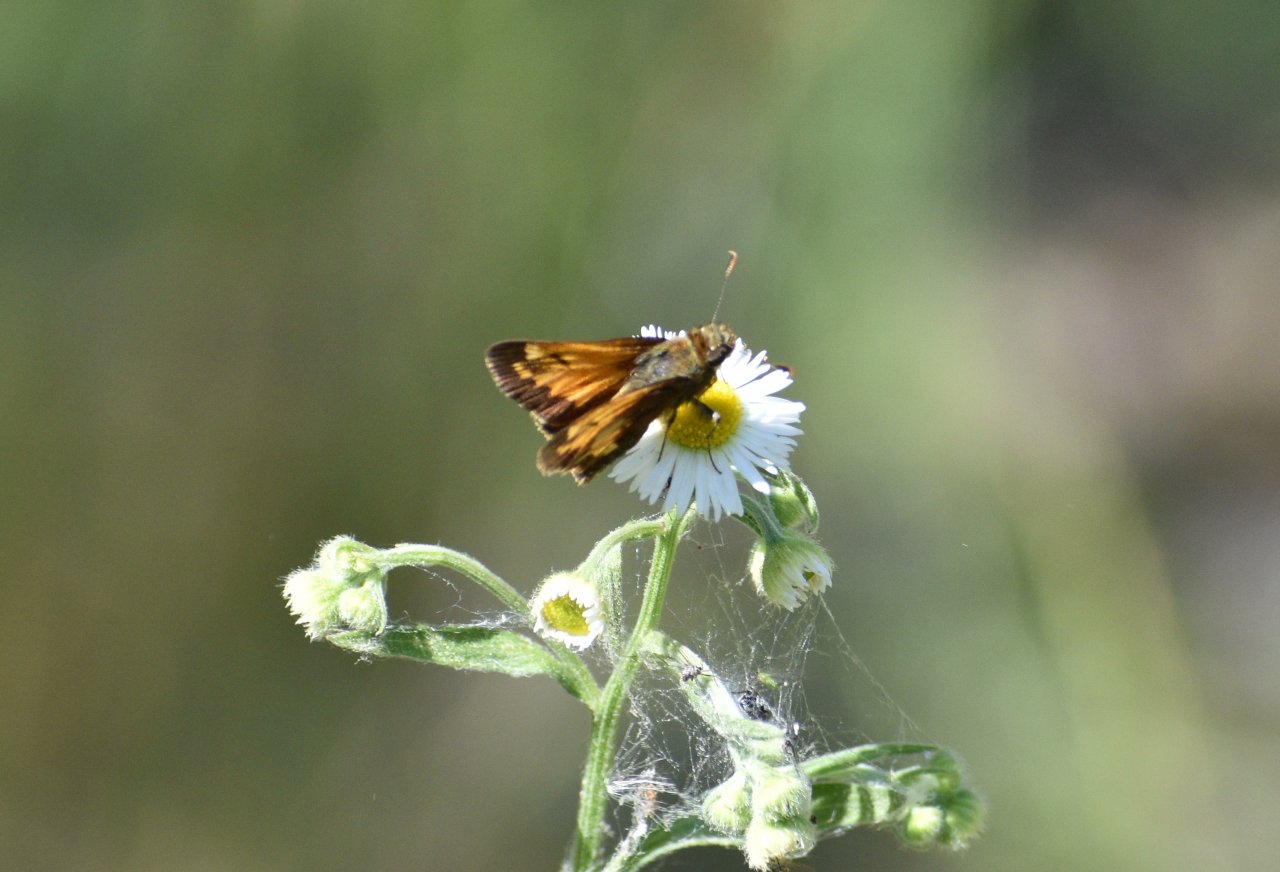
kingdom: Animalia
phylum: Arthropoda
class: Insecta
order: Lepidoptera
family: Hesperiidae
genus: Lon
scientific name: Lon hobomok
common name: Hobomok Skipper
